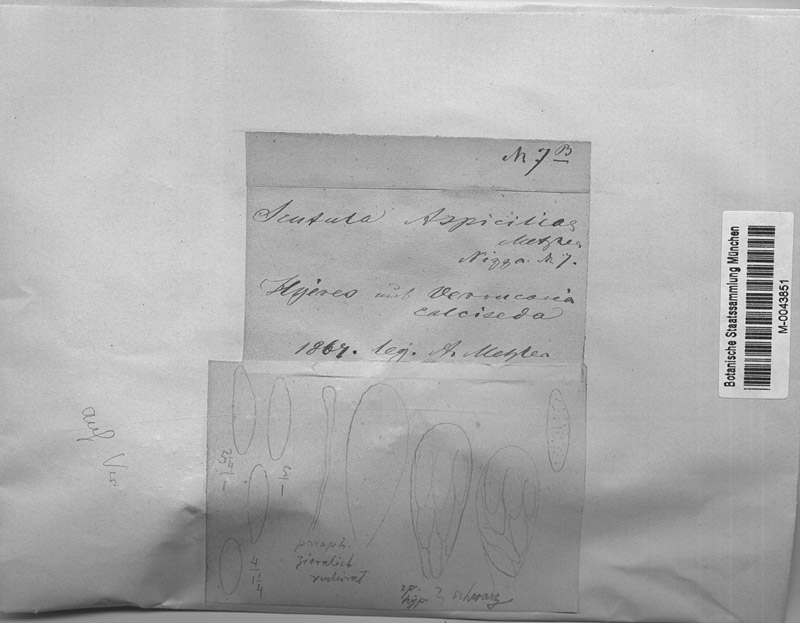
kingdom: Fungi
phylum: Ascomycota
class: Eurotiomycetes
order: Verrucariales
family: Verrucariaceae
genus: Bagliettoa
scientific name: Bagliettoa calciseda
